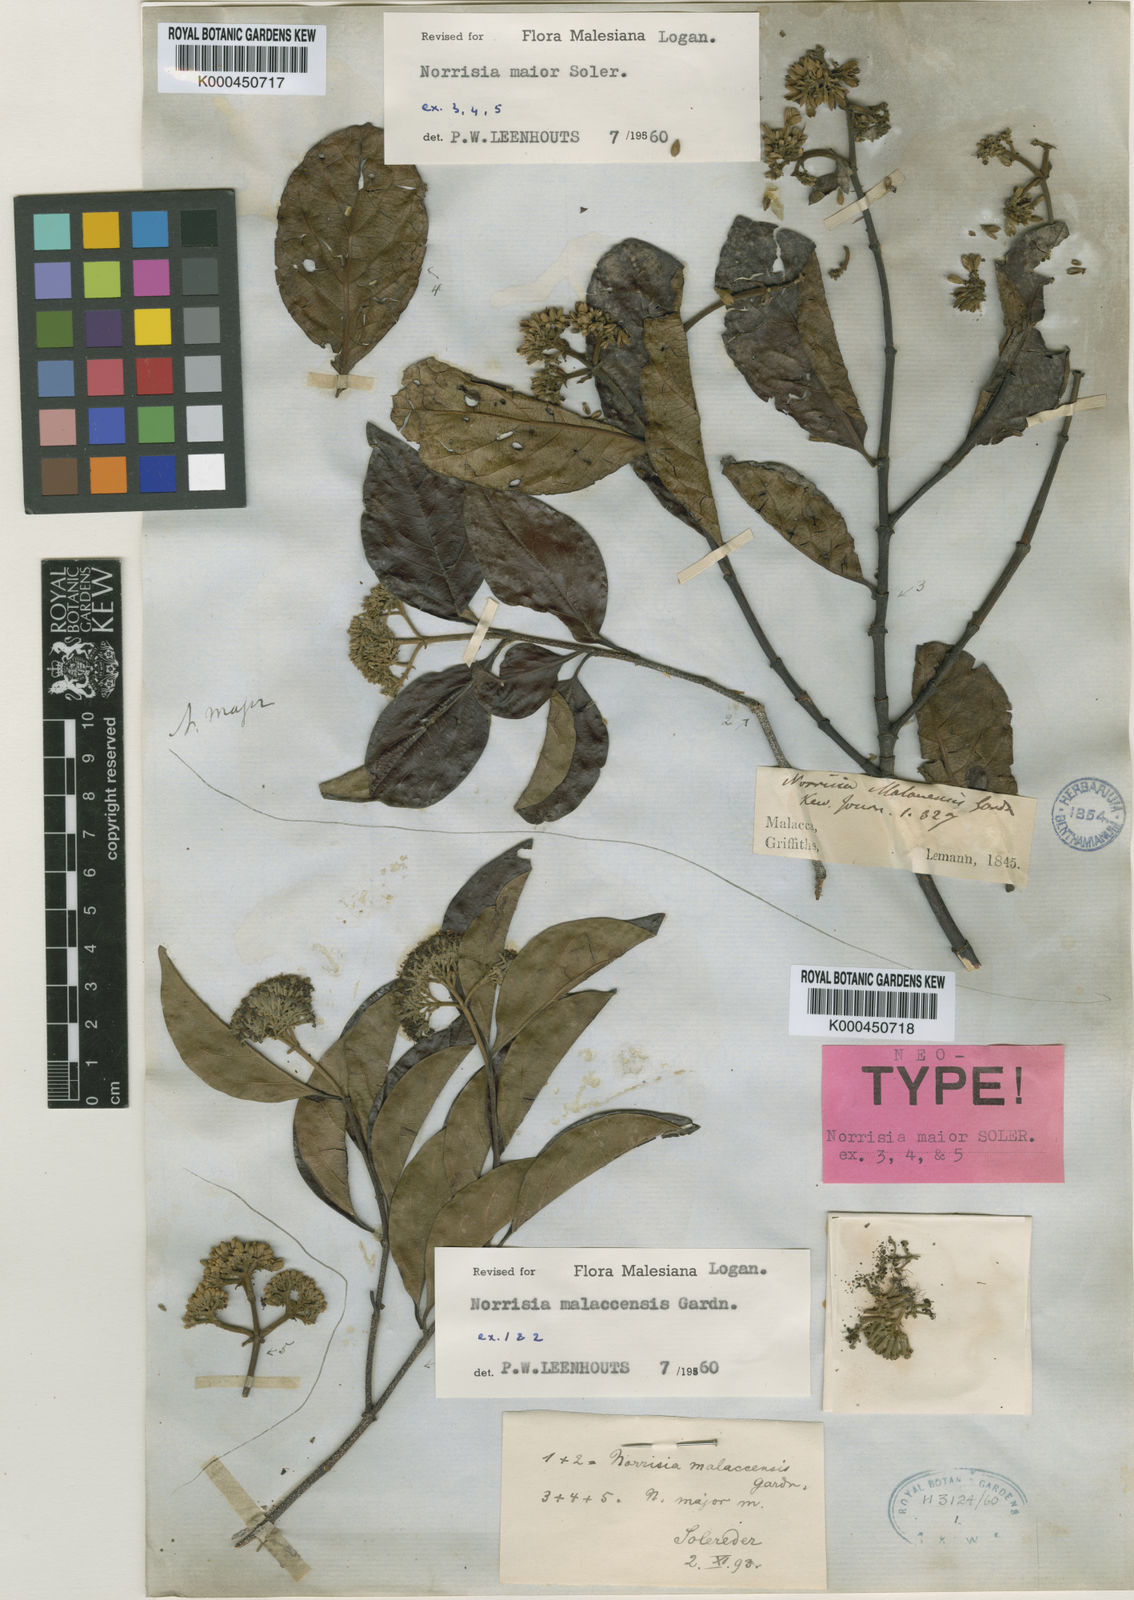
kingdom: Plantae
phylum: Tracheophyta
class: Magnoliopsida
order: Gentianales
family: Loganiaceae
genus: Norrisia
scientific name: Norrisia malaccensis
